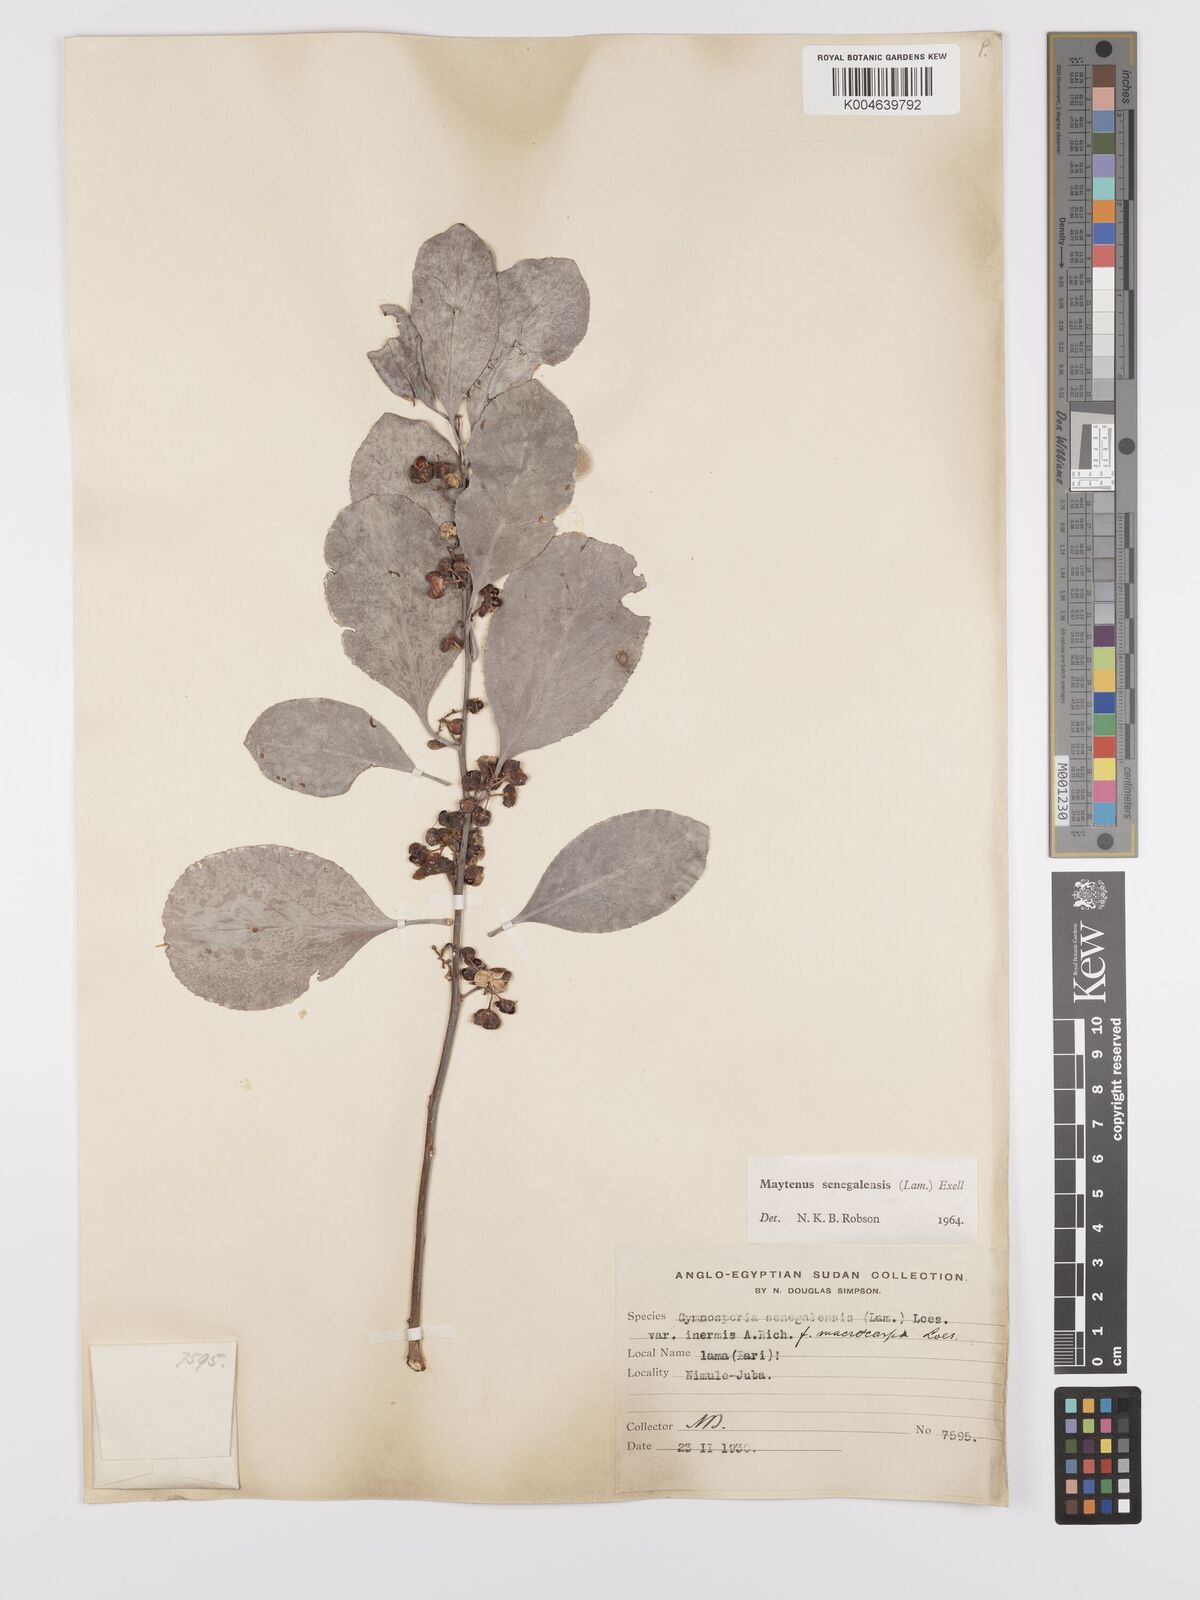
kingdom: Plantae
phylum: Tracheophyta
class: Magnoliopsida
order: Celastrales
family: Celastraceae
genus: Gymnosporia
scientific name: Gymnosporia senegalensis
